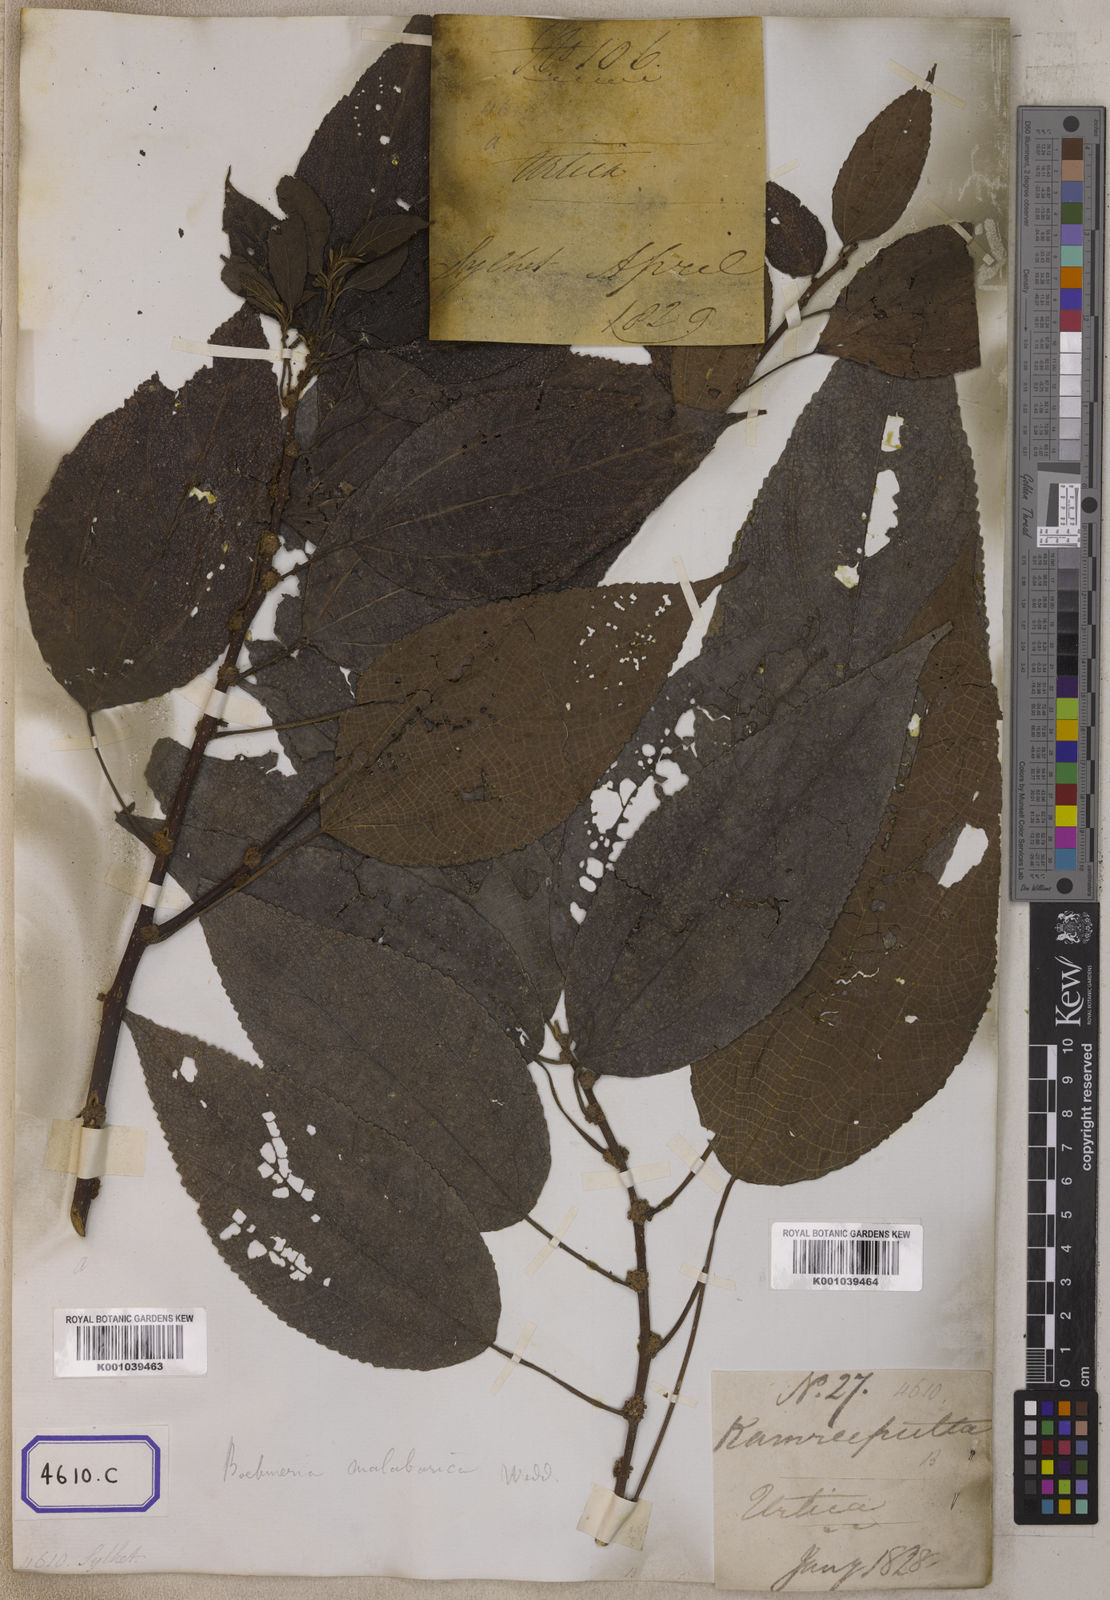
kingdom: Plantae
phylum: Tracheophyta
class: Magnoliopsida
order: Rosales
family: Urticaceae
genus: Boehmeria
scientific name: Boehmeria depauperata
